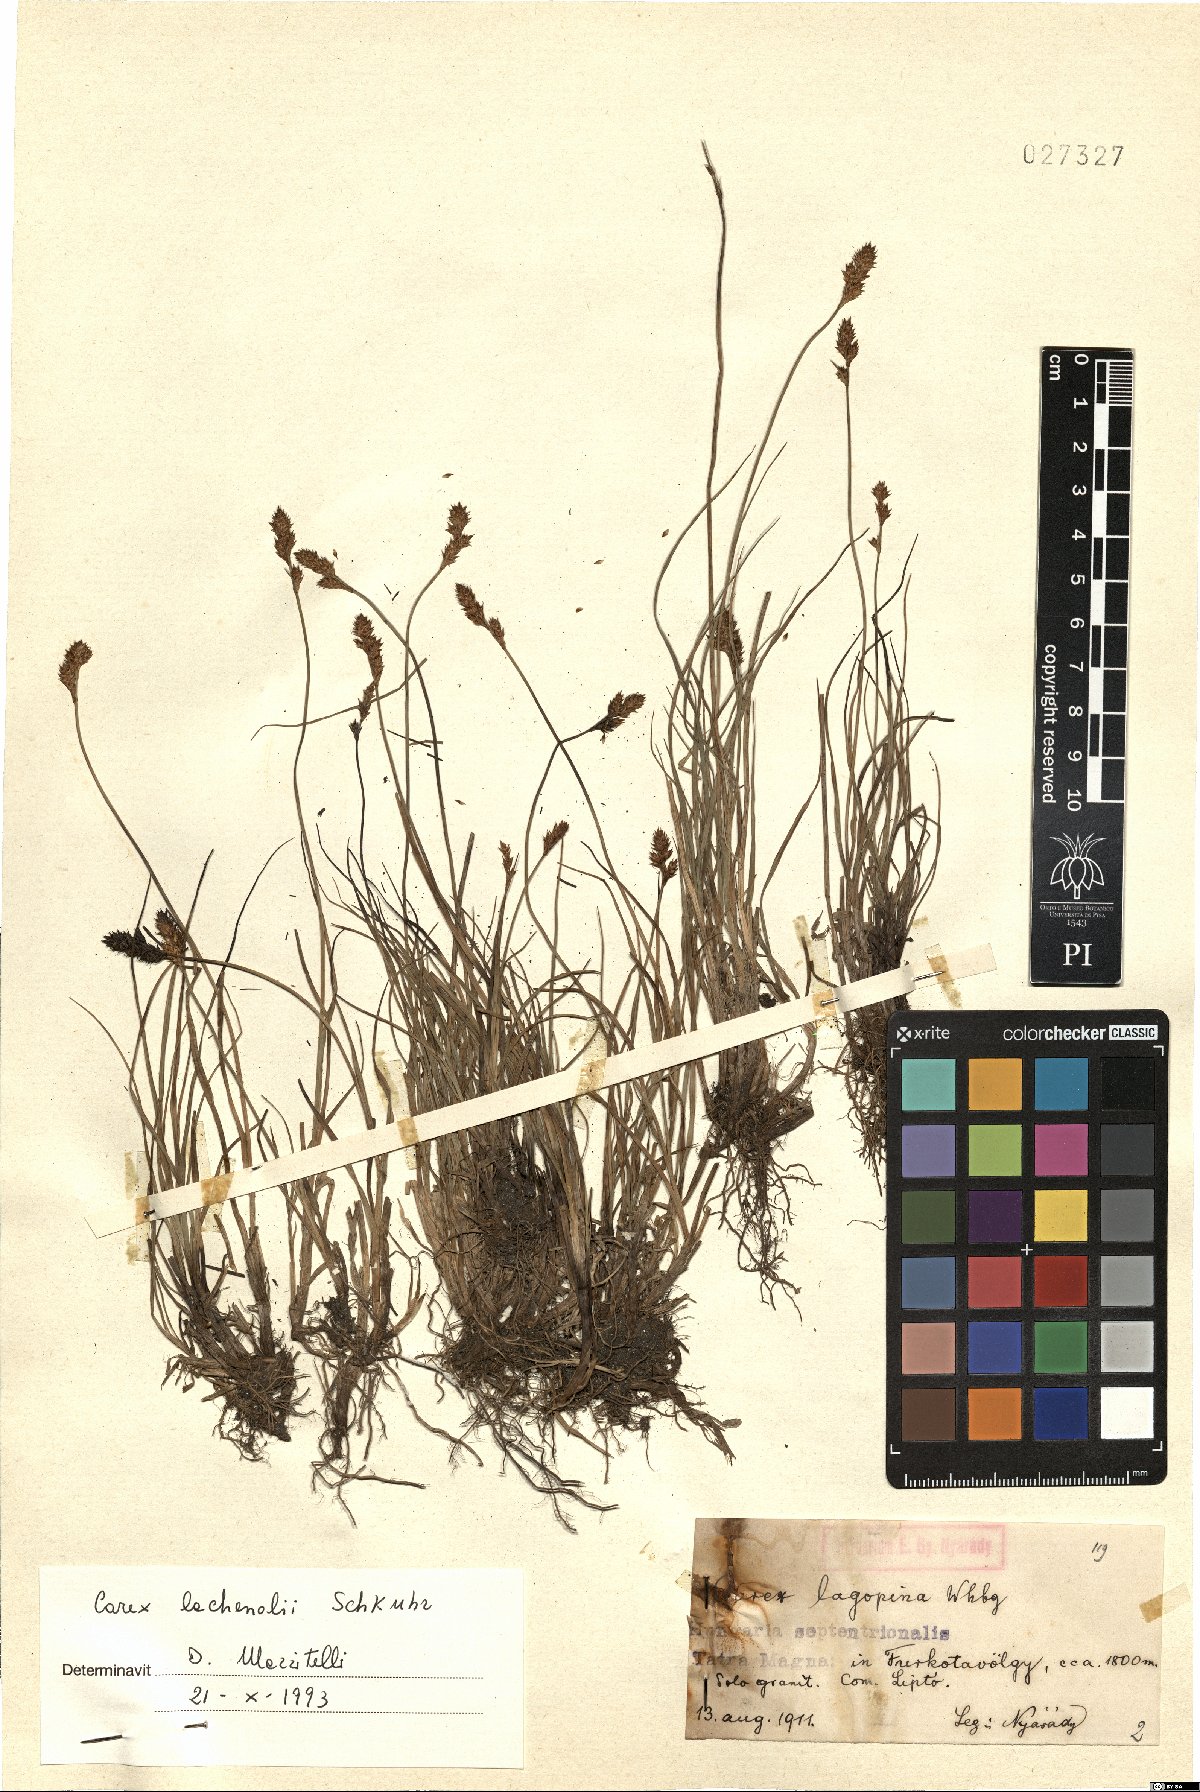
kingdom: Plantae
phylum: Tracheophyta
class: Liliopsida
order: Poales
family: Cyperaceae
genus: Carex
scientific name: Carex lachenalii
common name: Hare's-foot sedge
